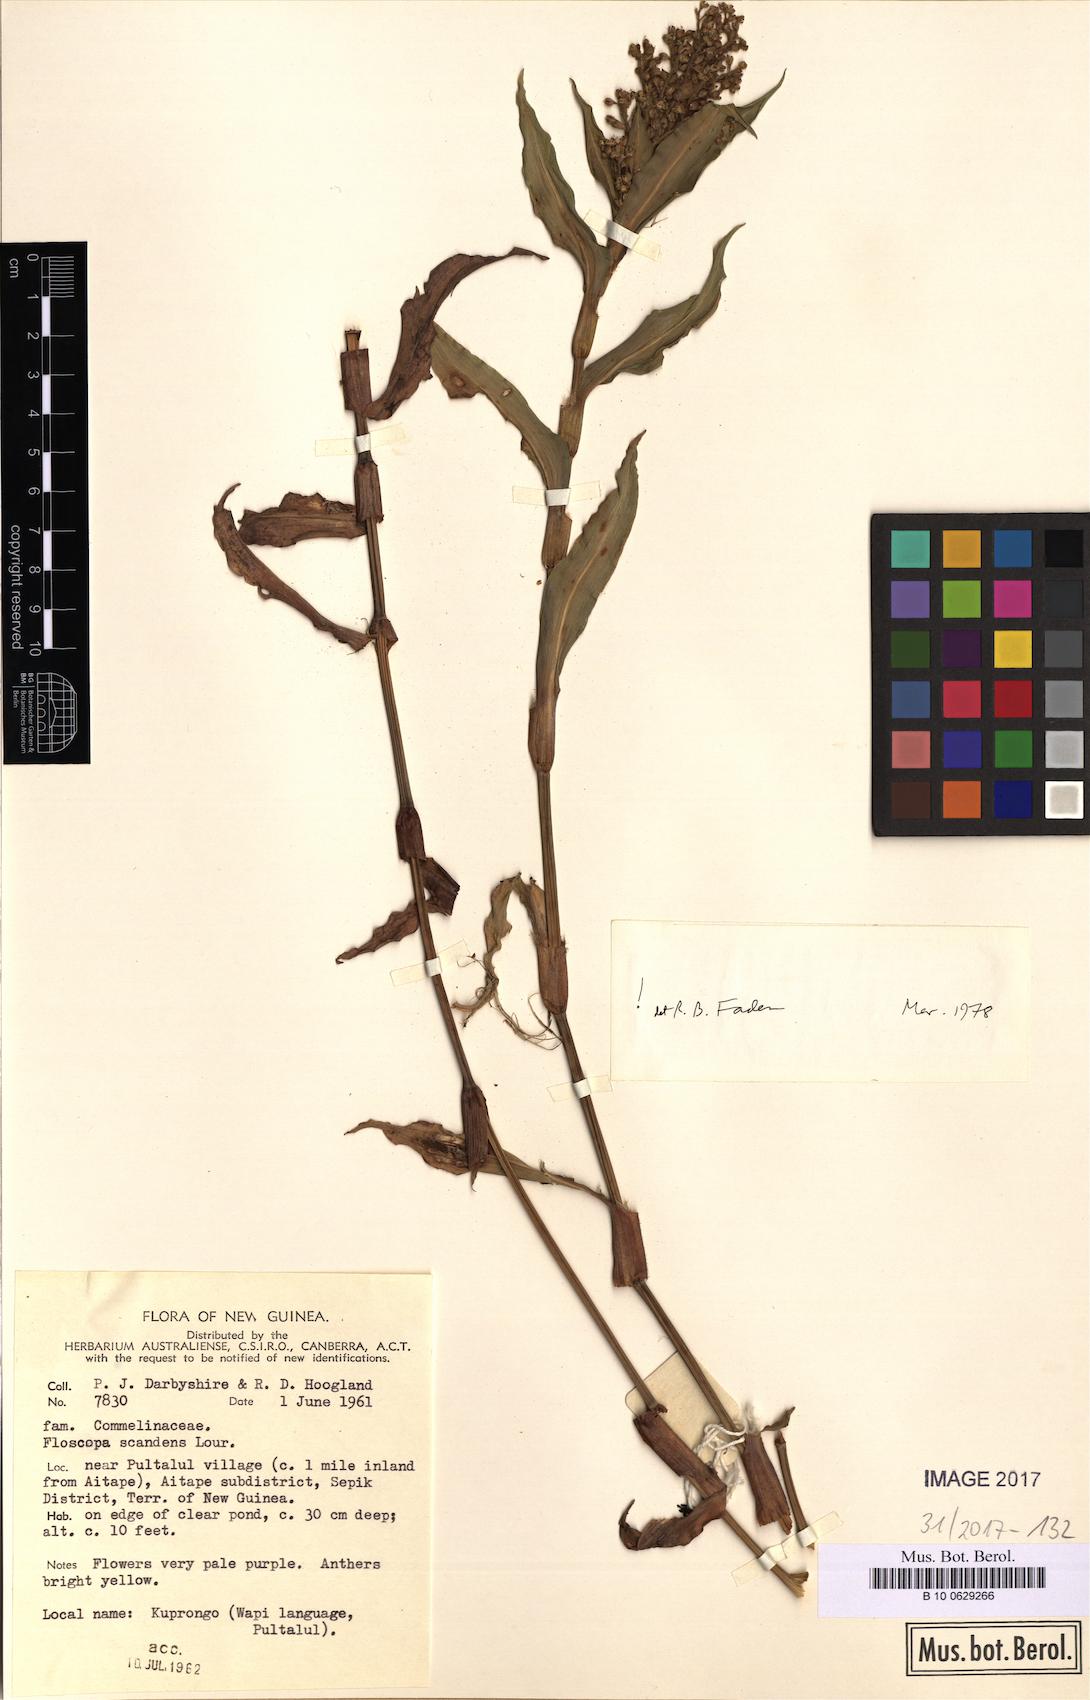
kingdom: Plantae
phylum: Tracheophyta
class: Liliopsida
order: Commelinales
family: Commelinaceae
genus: Floscopa
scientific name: Floscopa scandens
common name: Climbing flower cup
